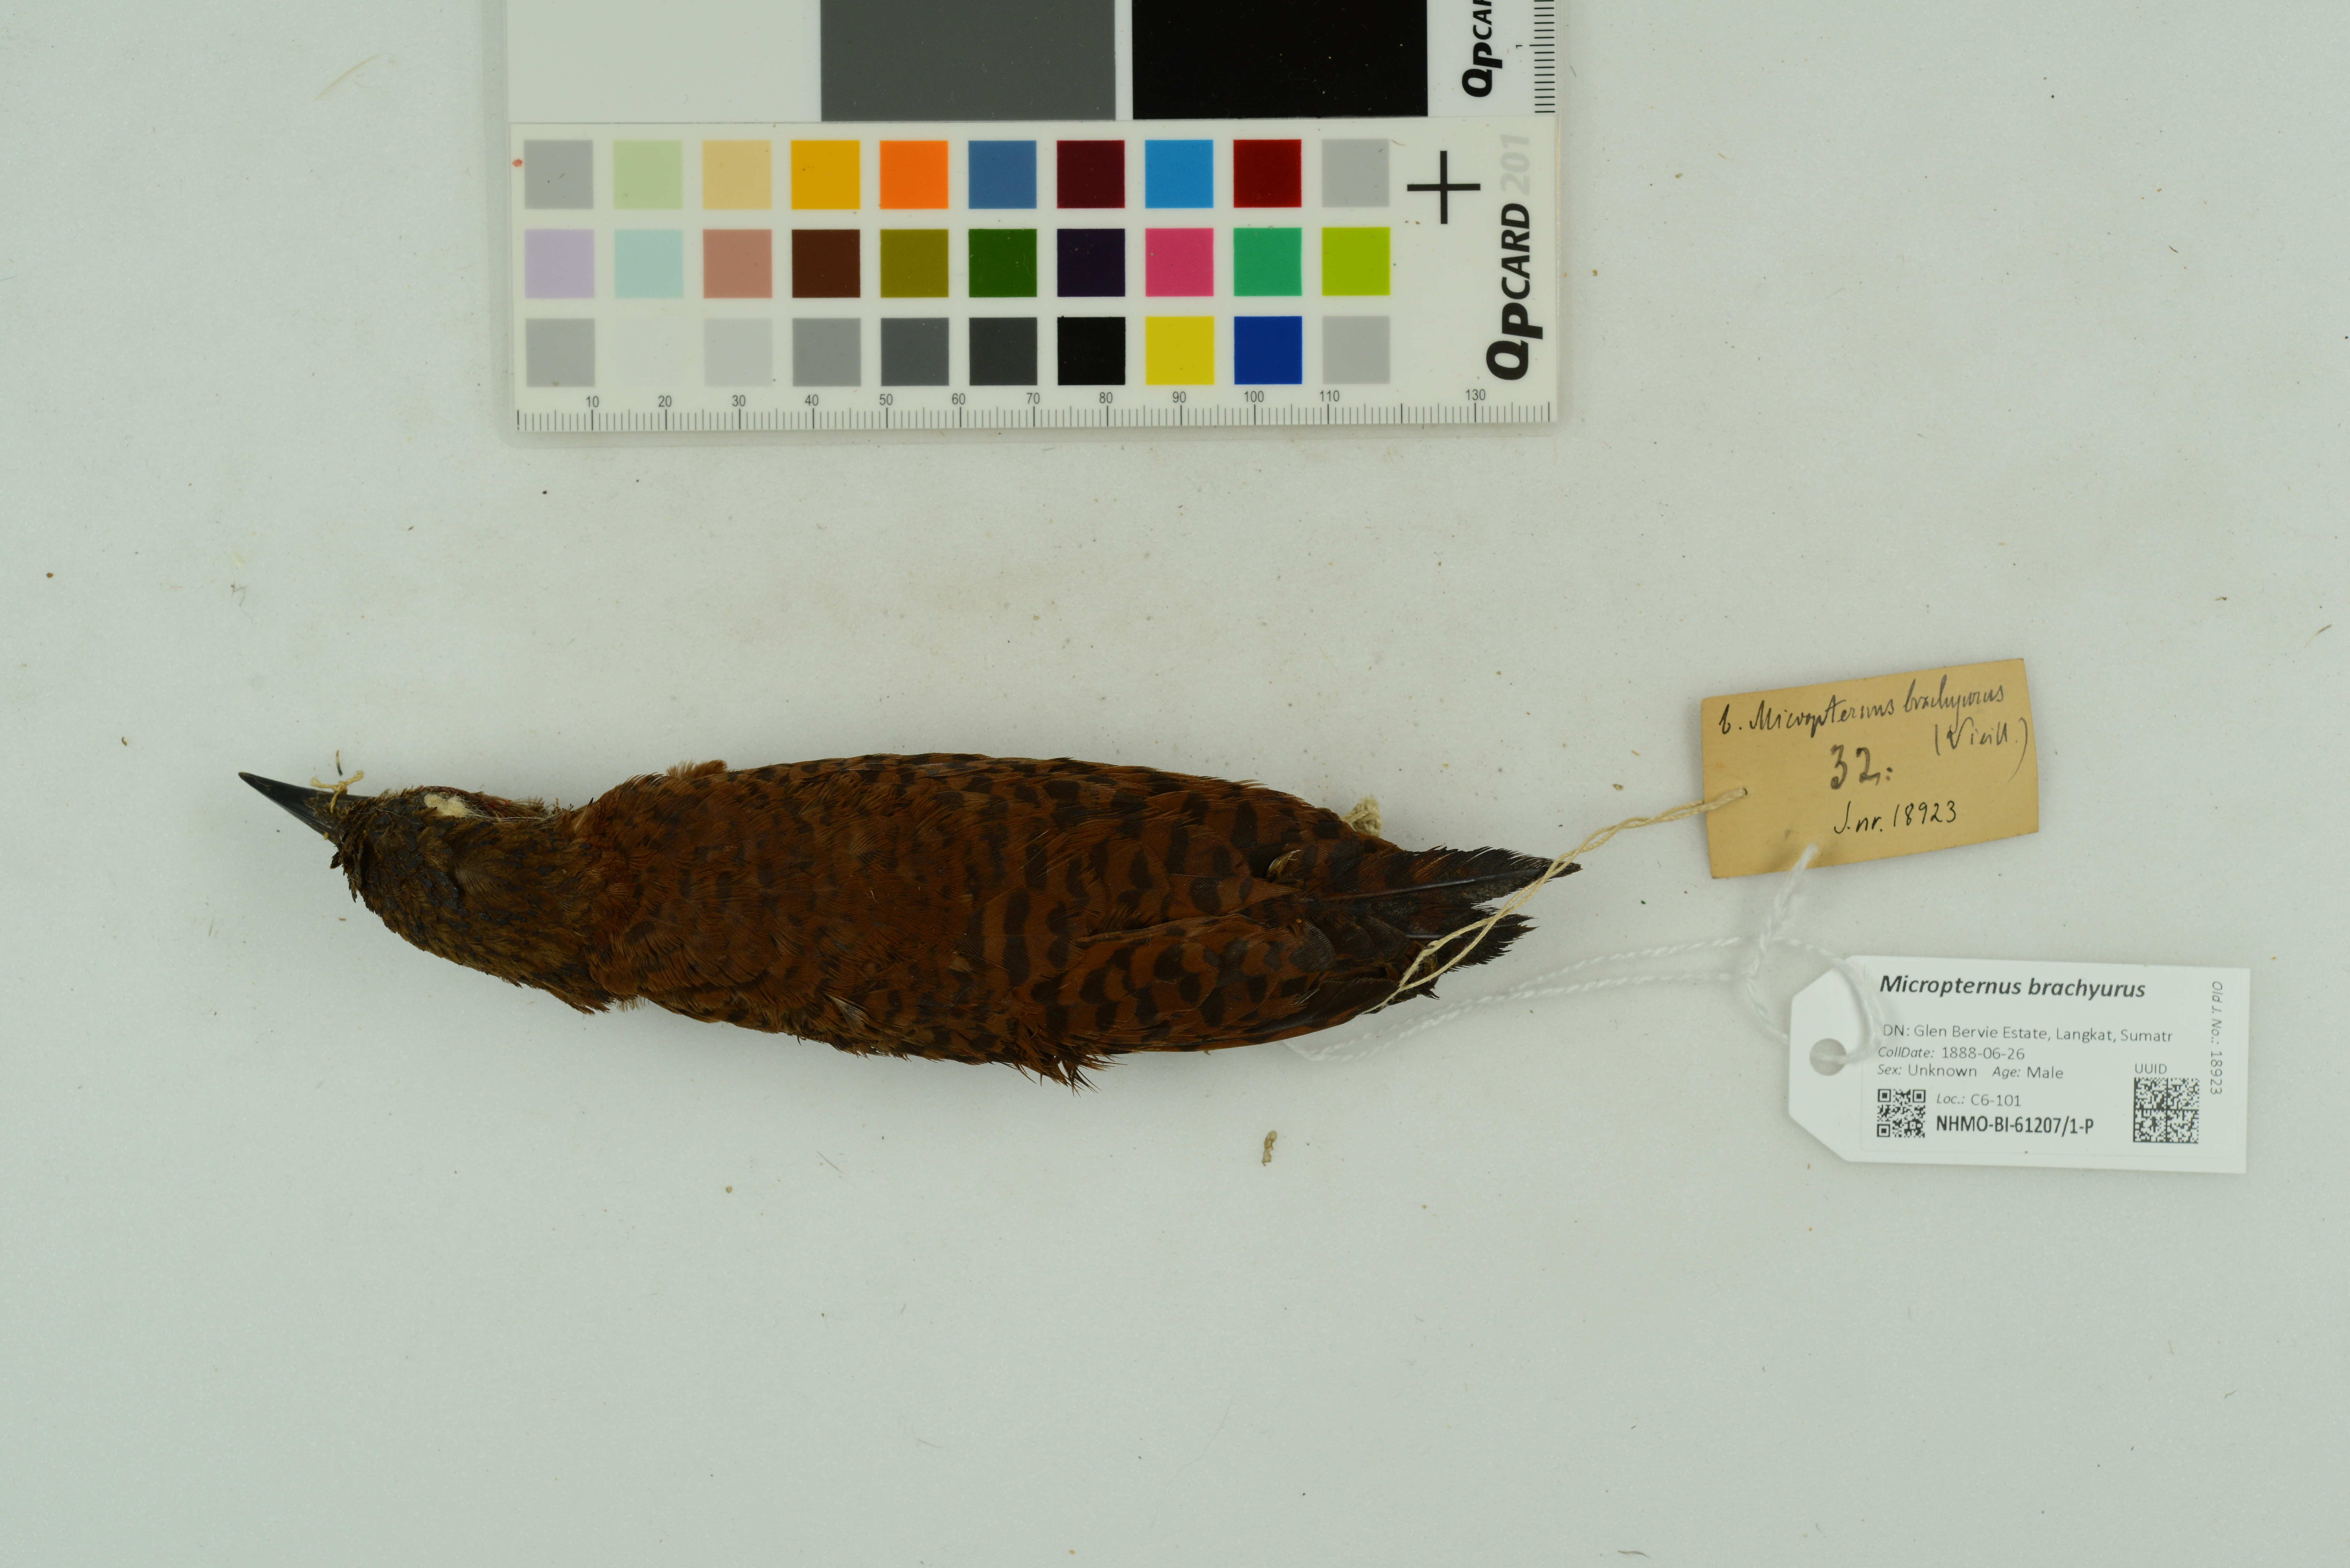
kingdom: Animalia
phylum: Chordata
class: Aves
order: Piciformes
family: Picidae
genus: Micropternus
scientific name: Micropternus brachyurus
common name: Rufous woodpecker
